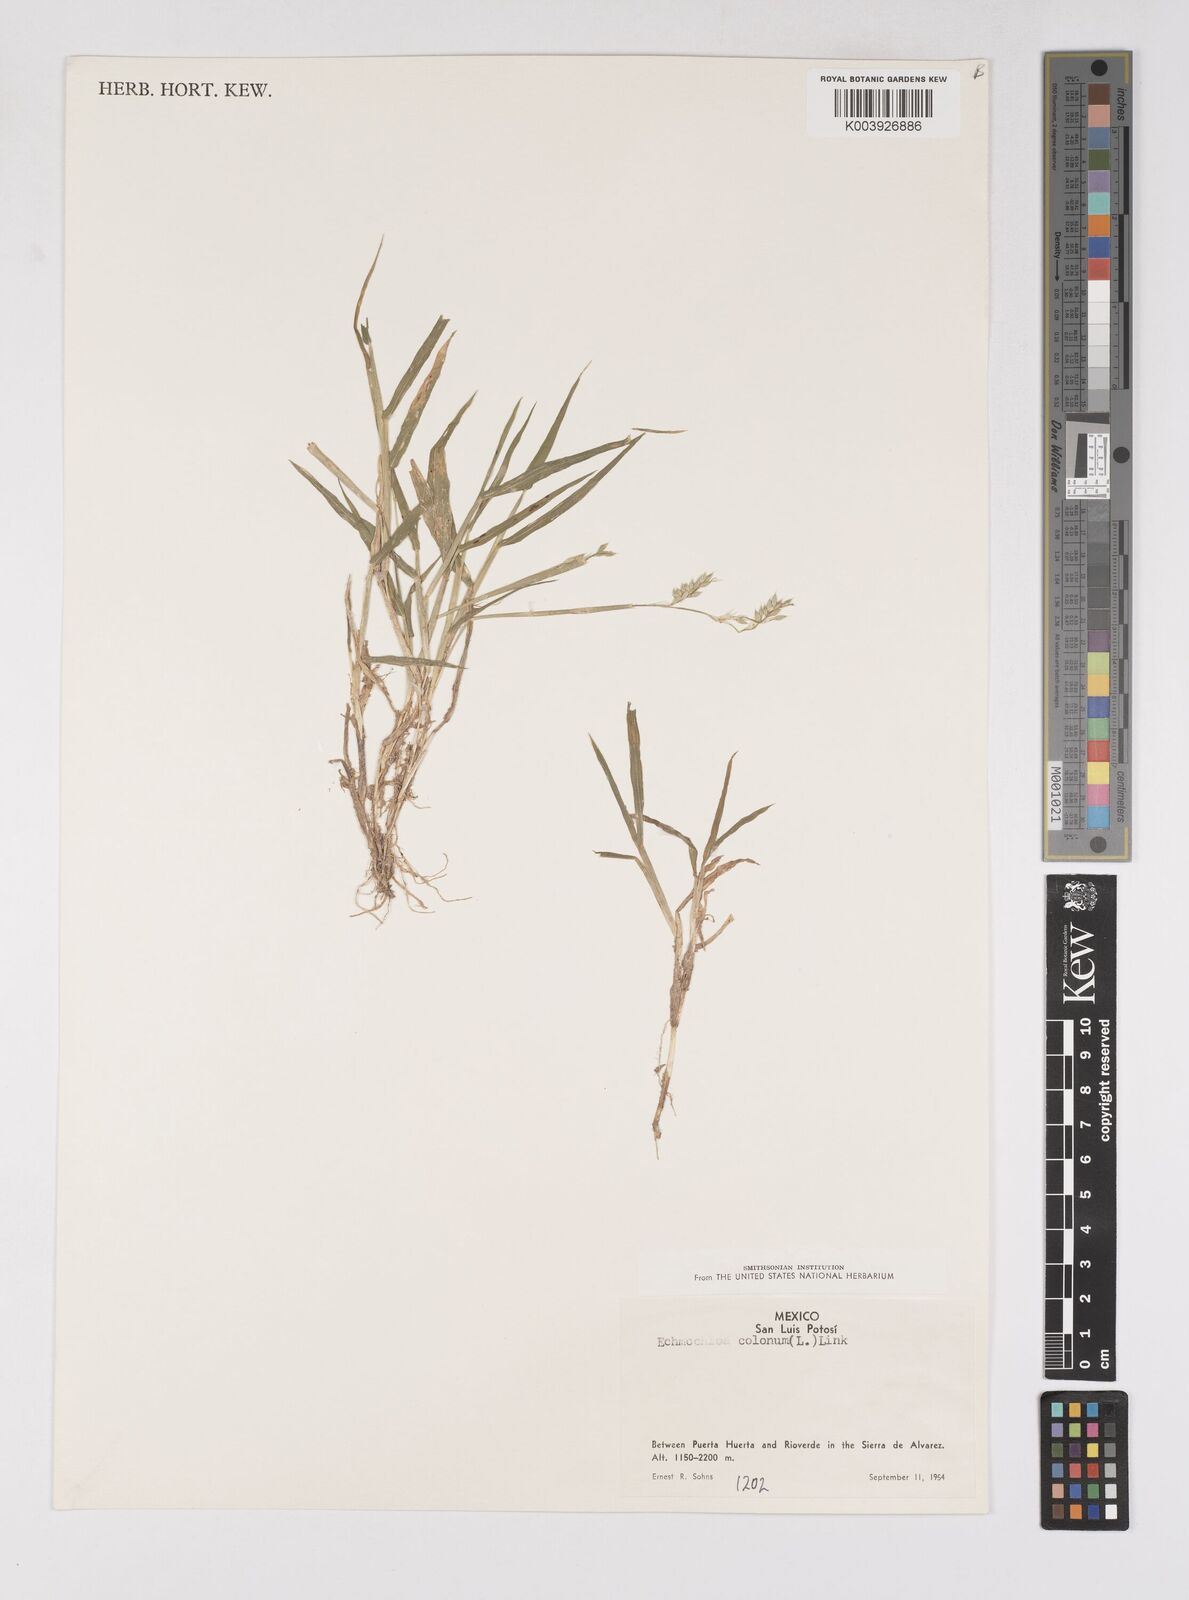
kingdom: Plantae
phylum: Tracheophyta
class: Liliopsida
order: Poales
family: Poaceae
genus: Eriochloa
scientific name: Eriochloa
